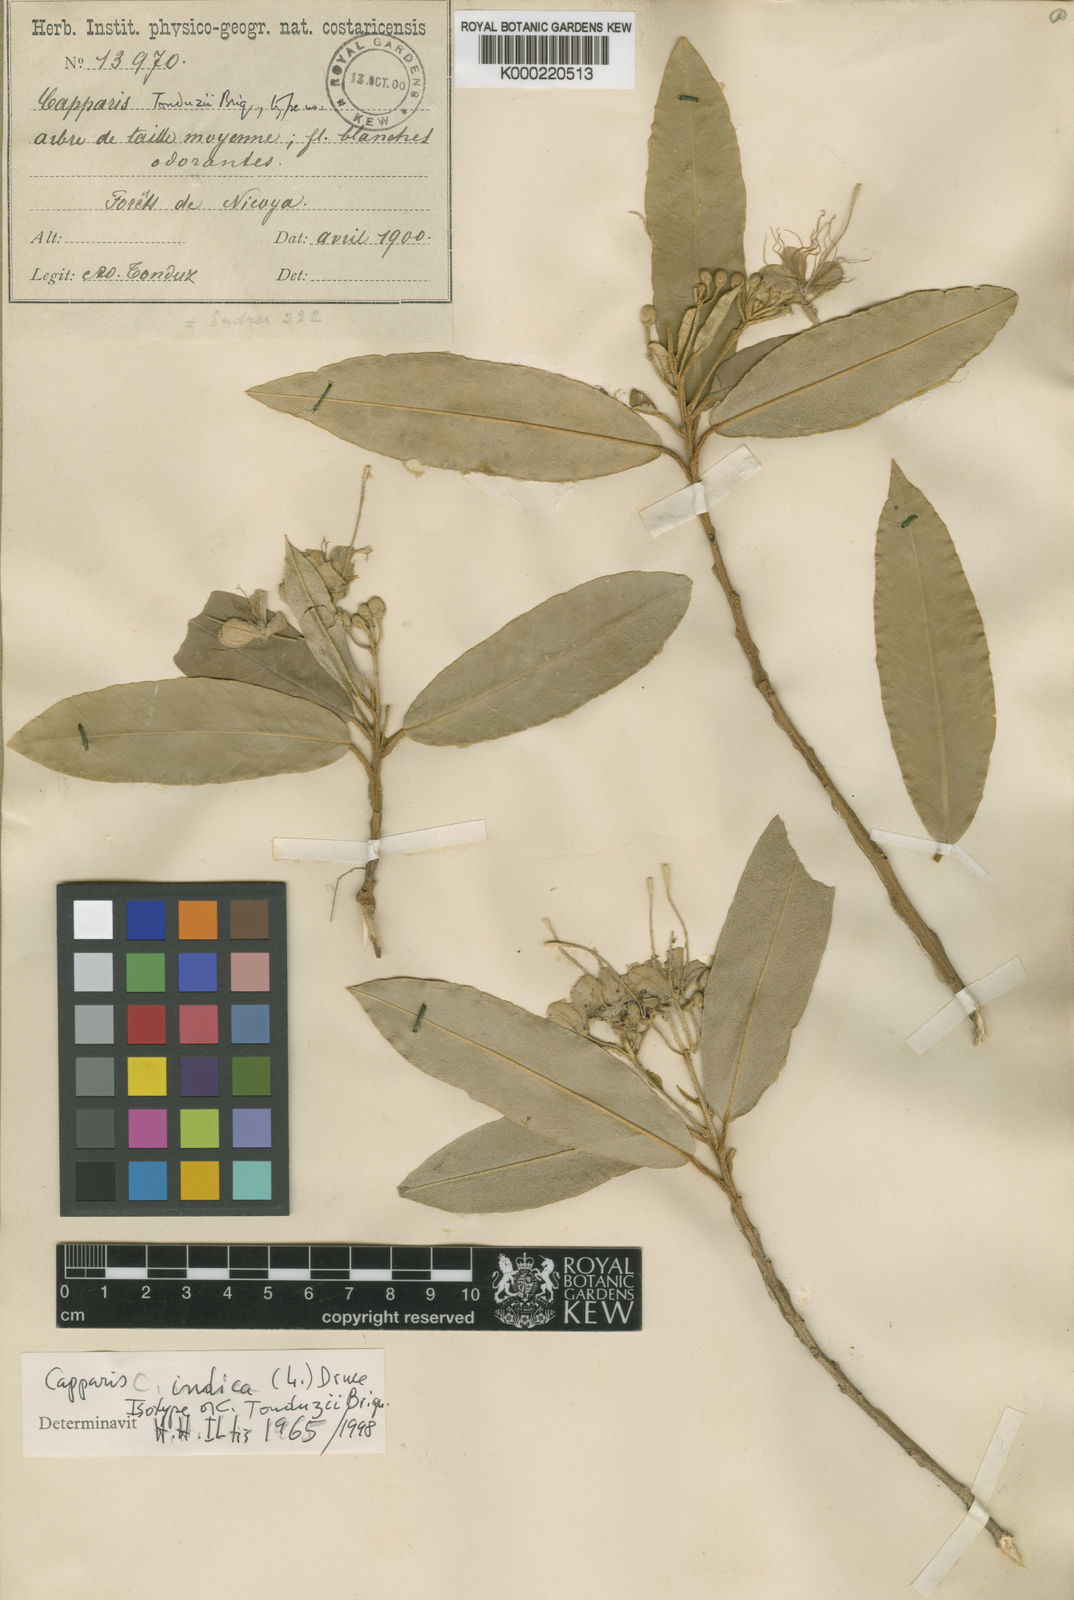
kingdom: Plantae
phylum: Tracheophyta
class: Magnoliopsida
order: Brassicales
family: Capparaceae
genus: Quadrella
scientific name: Quadrella indica
